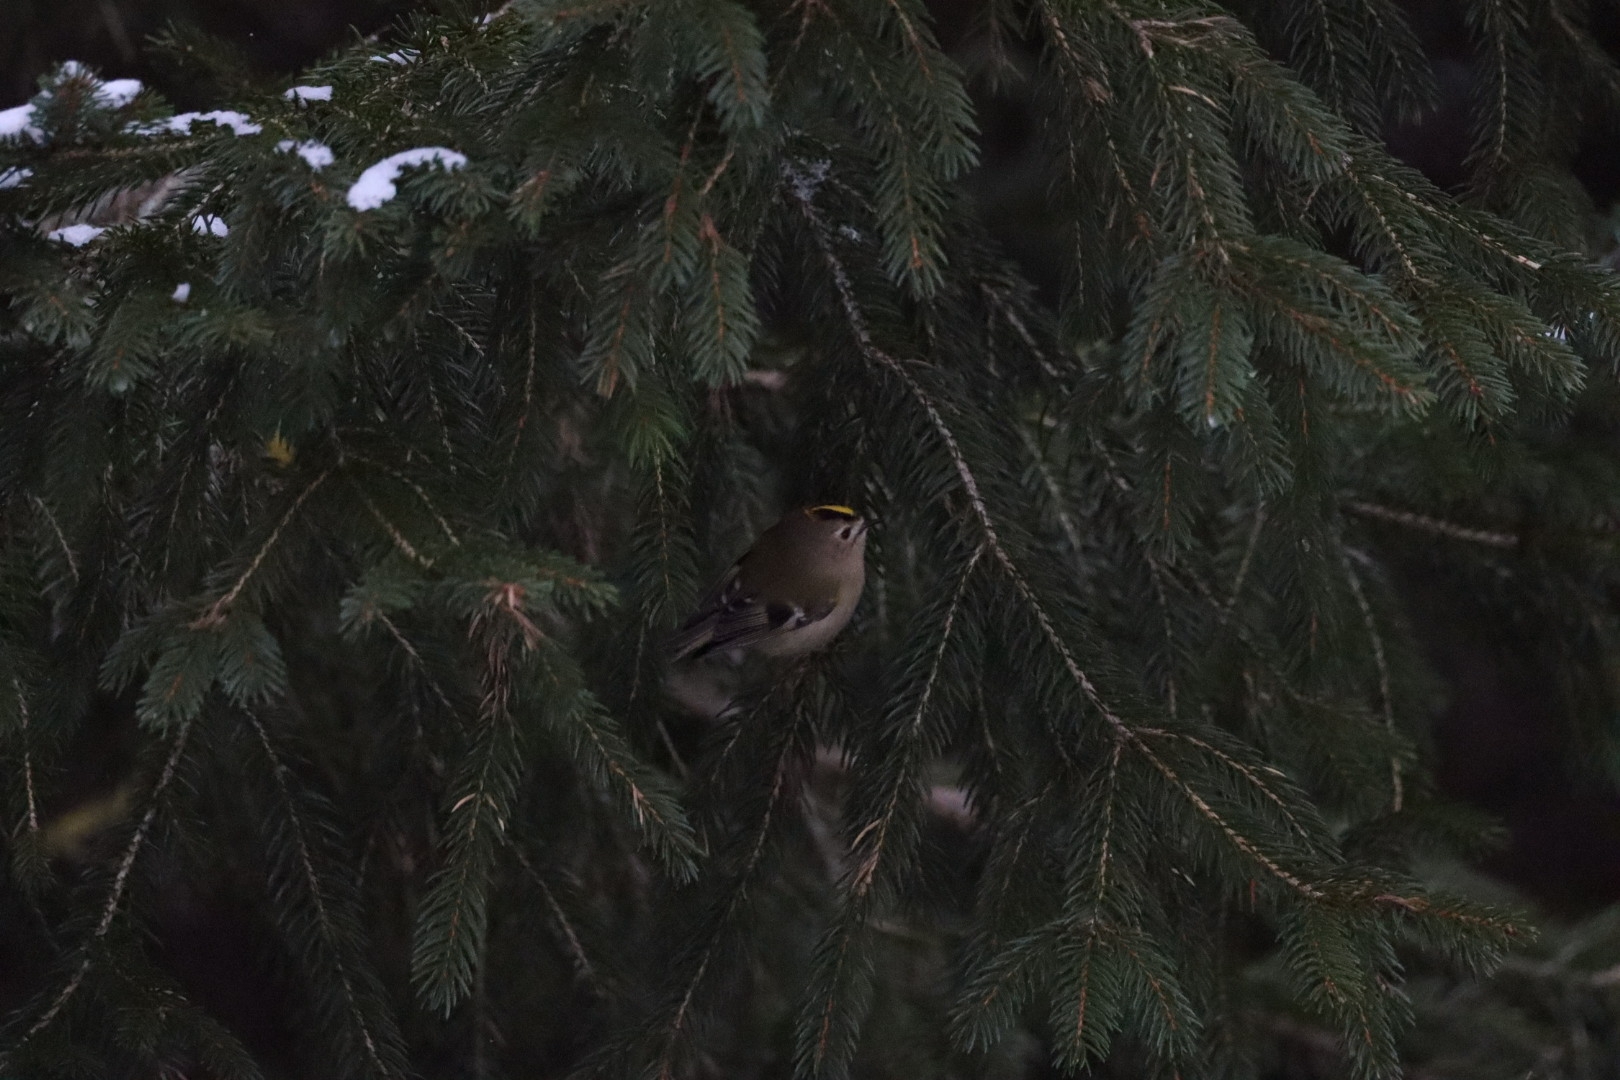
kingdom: Animalia
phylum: Chordata
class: Aves
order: Passeriformes
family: Regulidae
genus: Regulus
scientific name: Regulus regulus
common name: Fuglekonge
